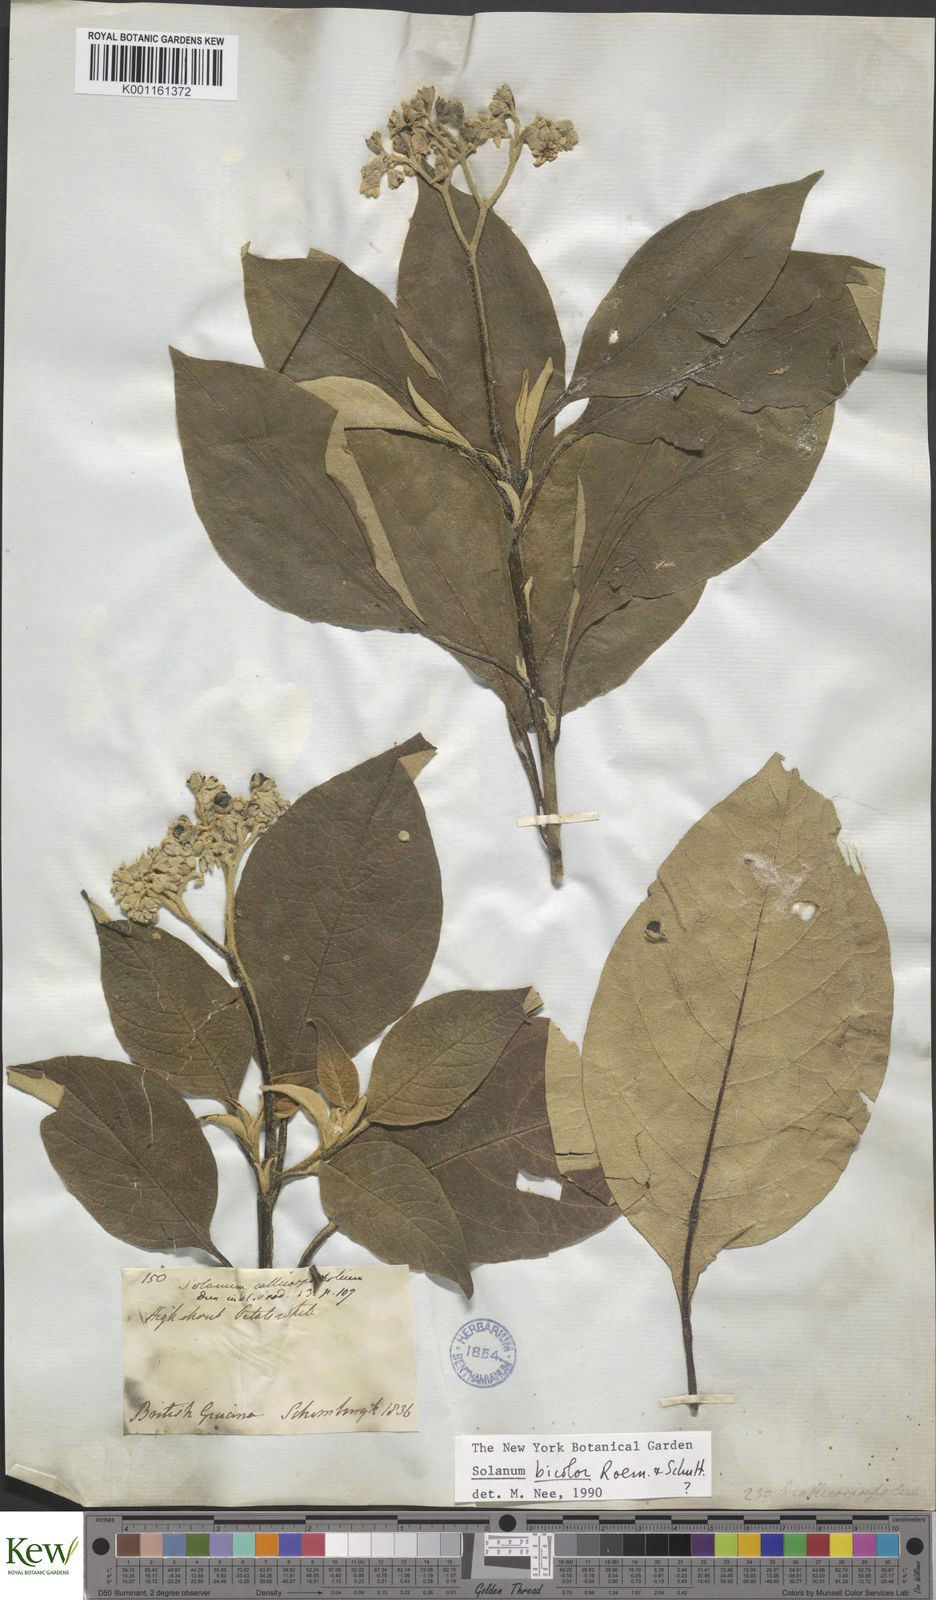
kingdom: Plantae
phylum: Tracheophyta
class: Magnoliopsida
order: Solanales
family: Solanaceae
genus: Solanum
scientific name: Solanum bicolor
